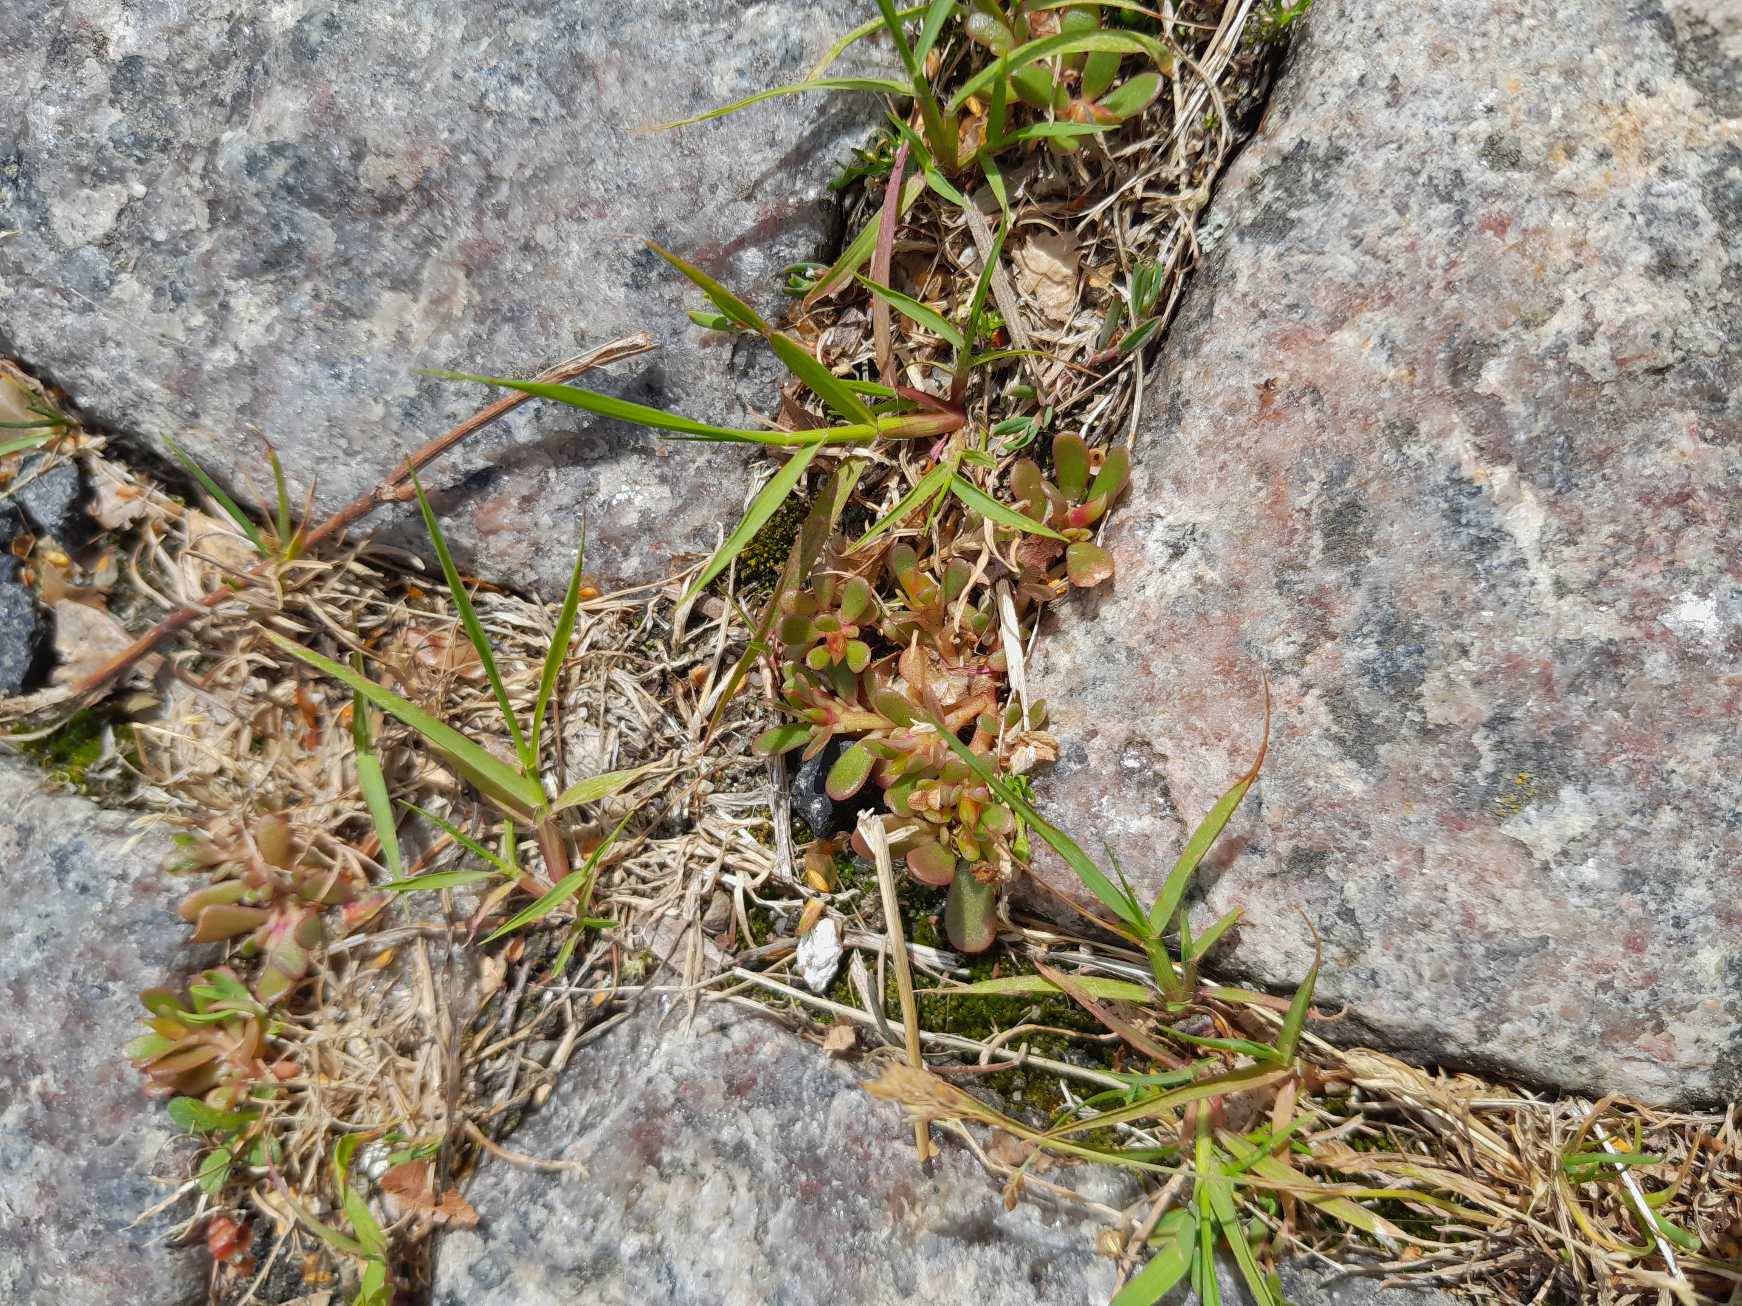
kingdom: Plantae
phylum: Tracheophyta
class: Magnoliopsida
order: Caryophyllales
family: Portulacaceae
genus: Portulaca
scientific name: Portulaca oleracea
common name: Portulak
